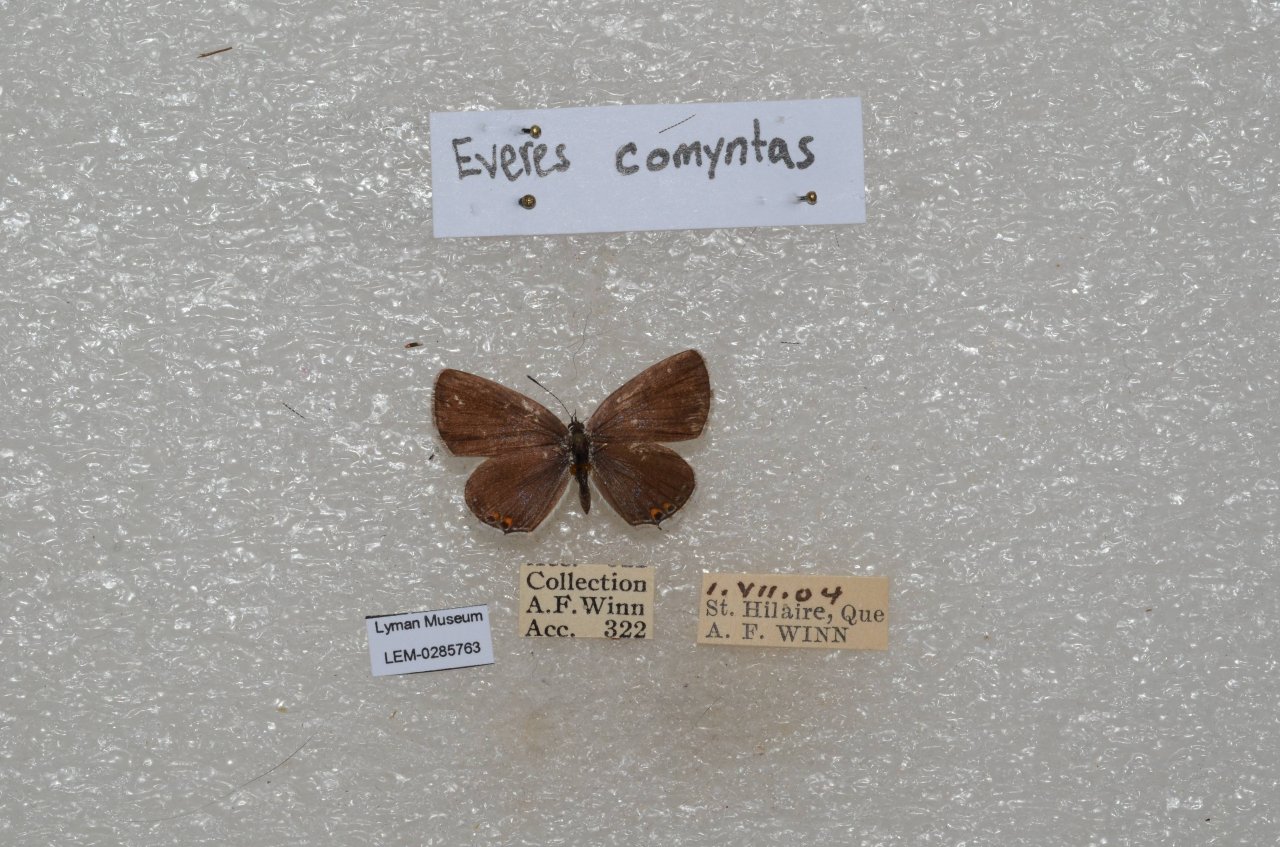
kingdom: Animalia
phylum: Arthropoda
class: Insecta
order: Lepidoptera
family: Lycaenidae
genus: Elkalyce
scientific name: Elkalyce comyntas
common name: Eastern Tailed-Blue
